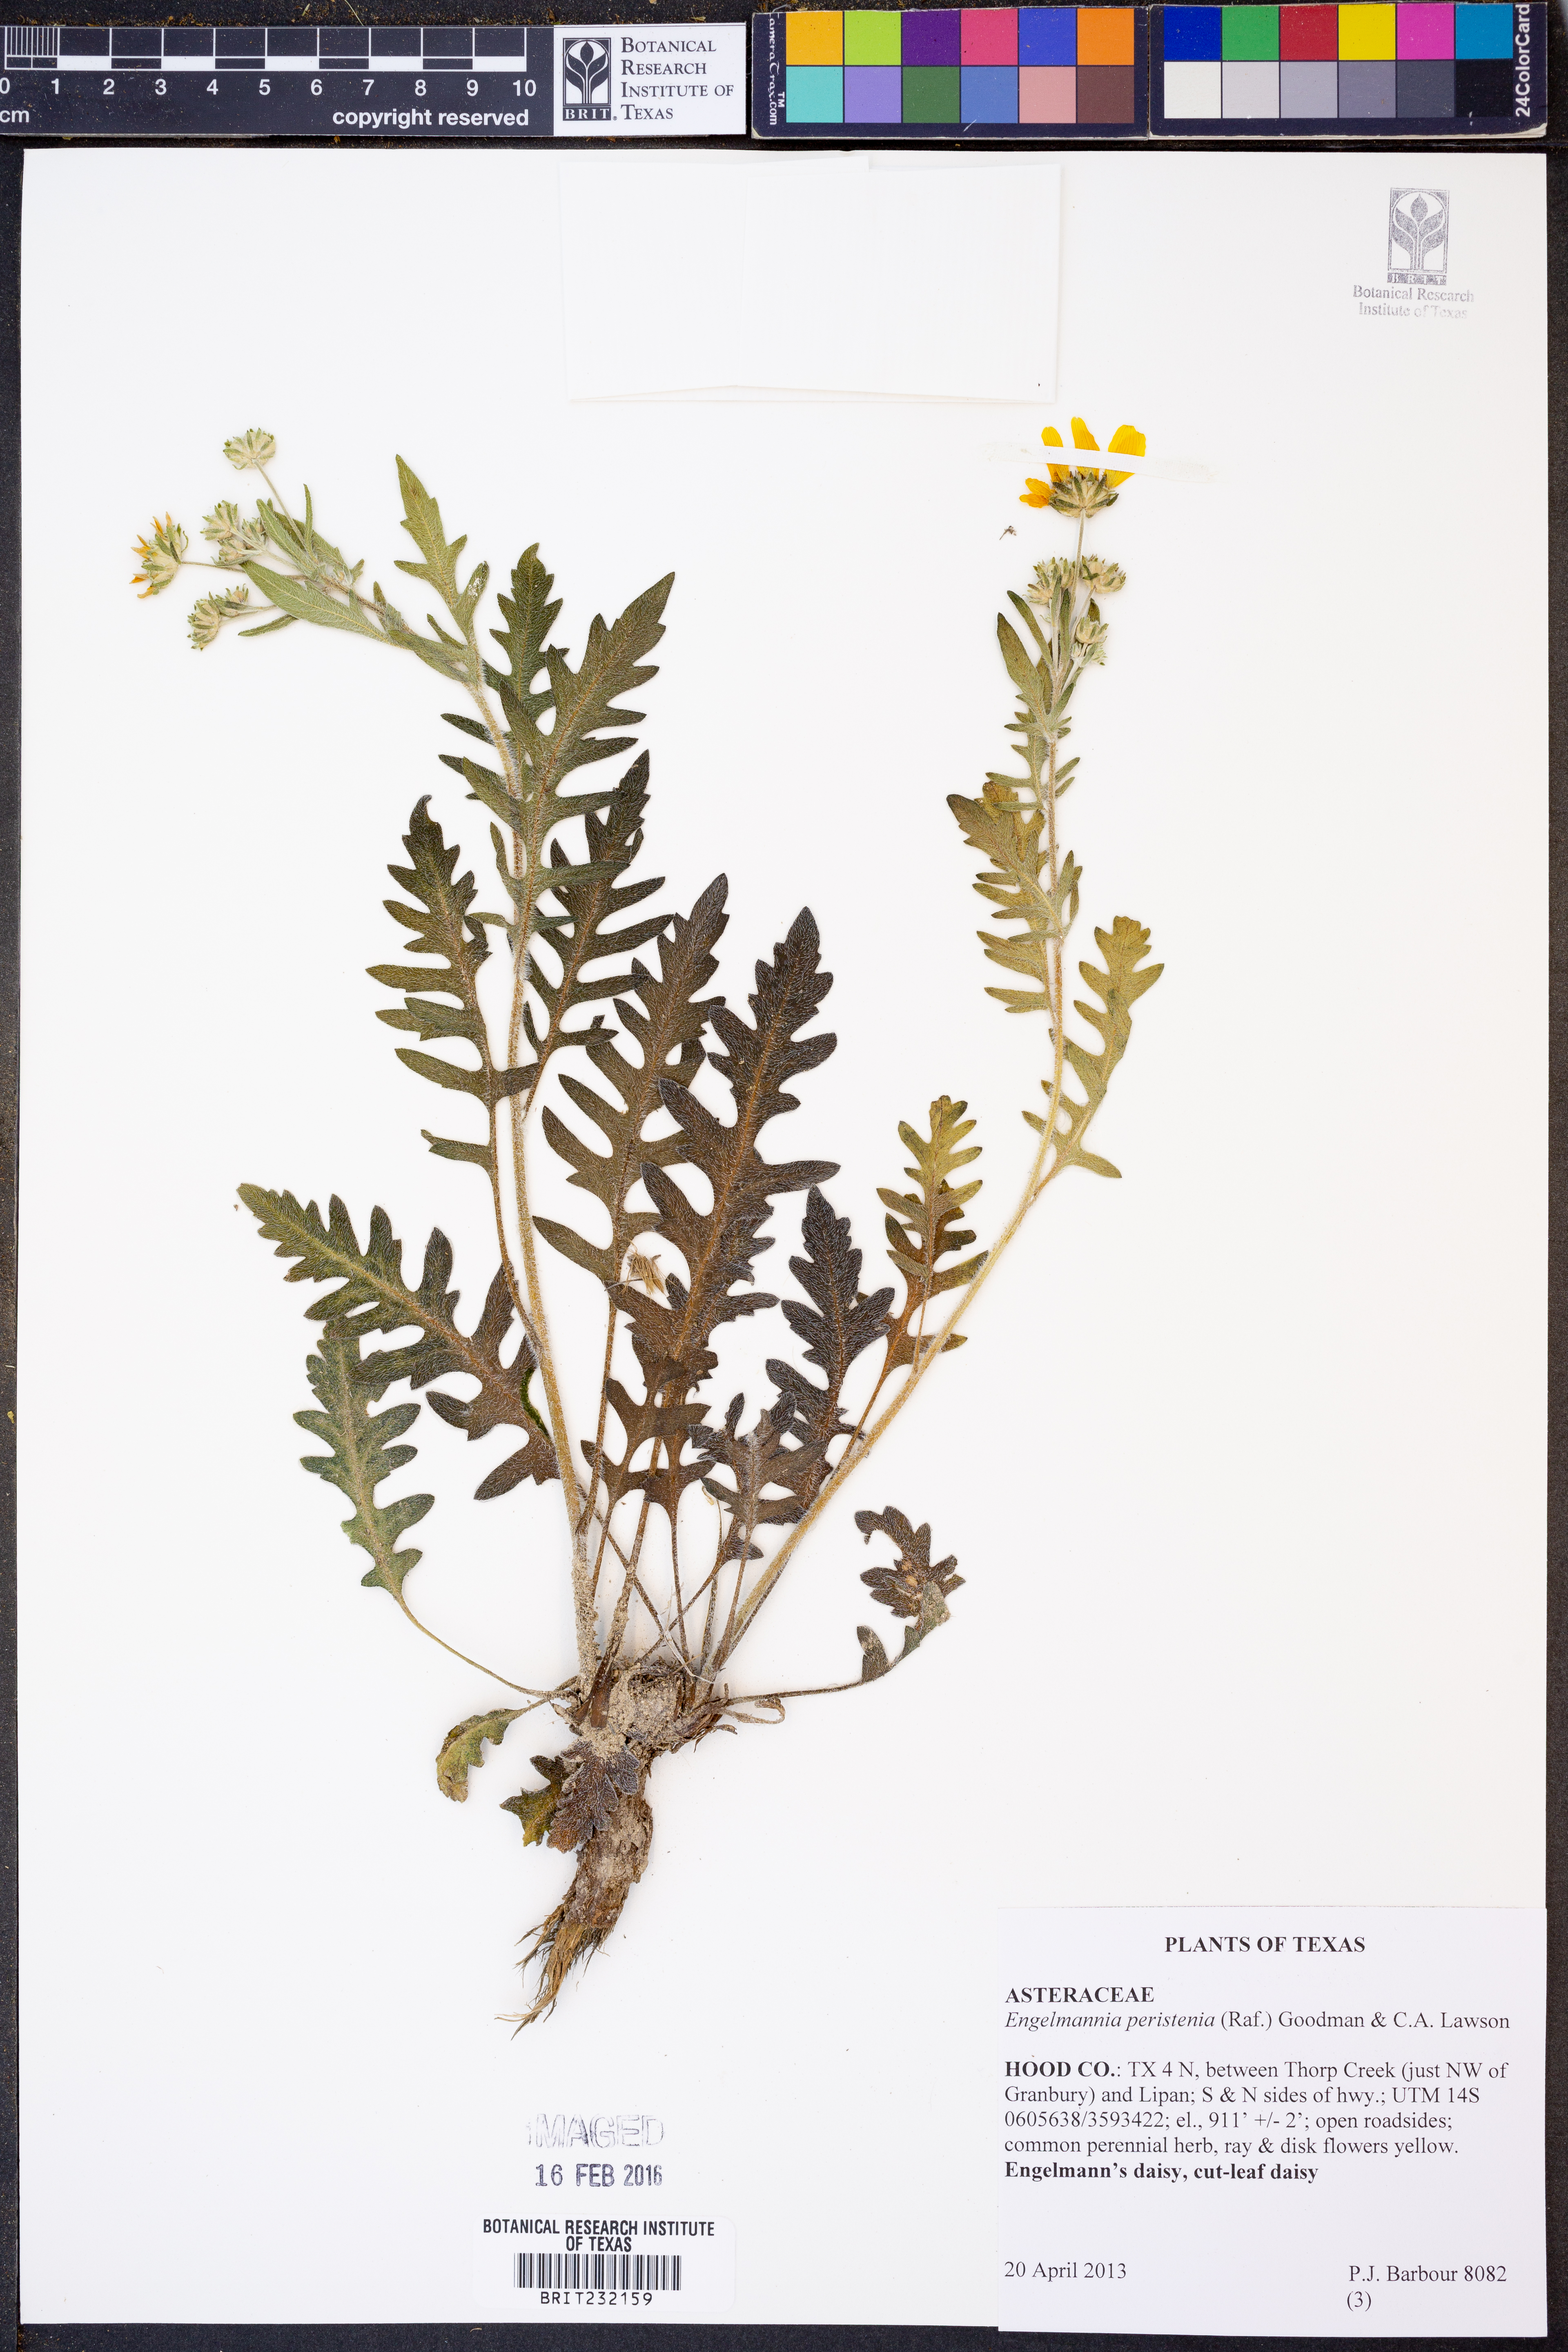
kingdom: Plantae
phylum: Tracheophyta
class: Magnoliopsida
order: Asterales
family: Asteraceae
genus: Engelmannia
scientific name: Engelmannia peristenia
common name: Engelmann's daisy
